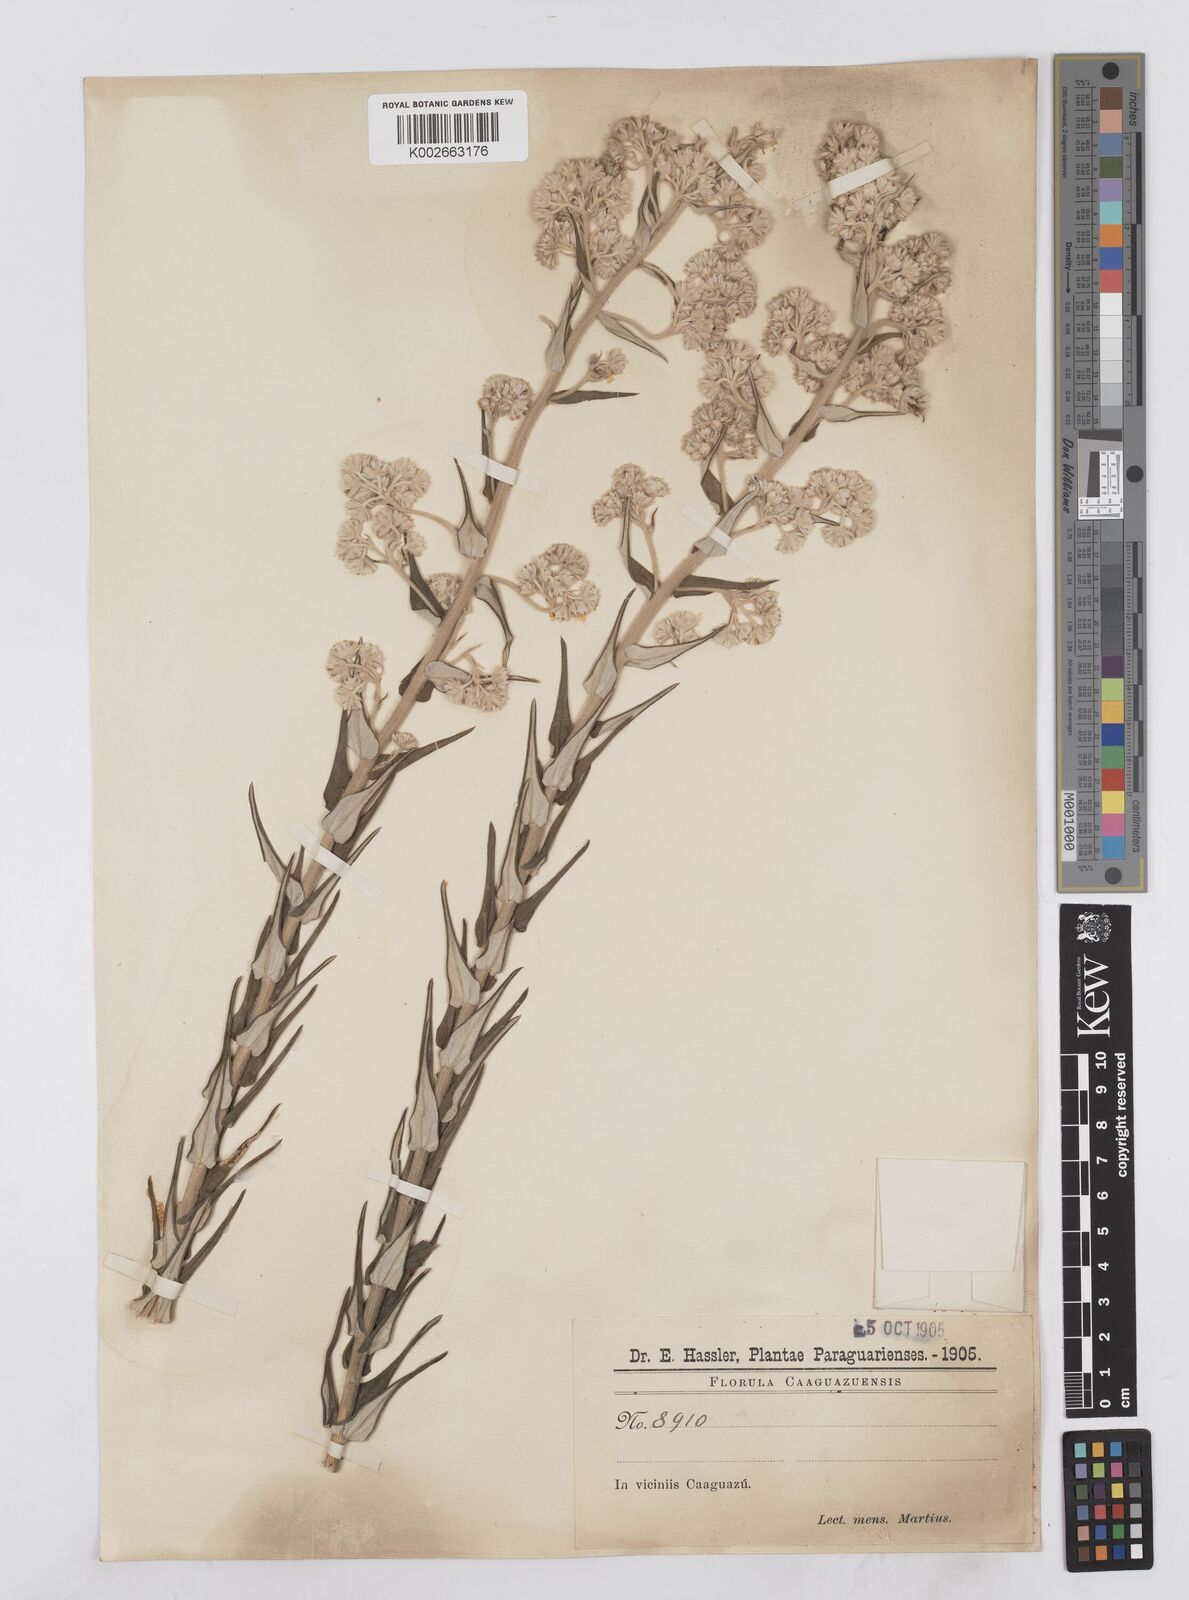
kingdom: Plantae
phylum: Tracheophyta
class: Magnoliopsida
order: Asterales
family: Asteraceae
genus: Baccharis
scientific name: Baccharis helichrysoides
